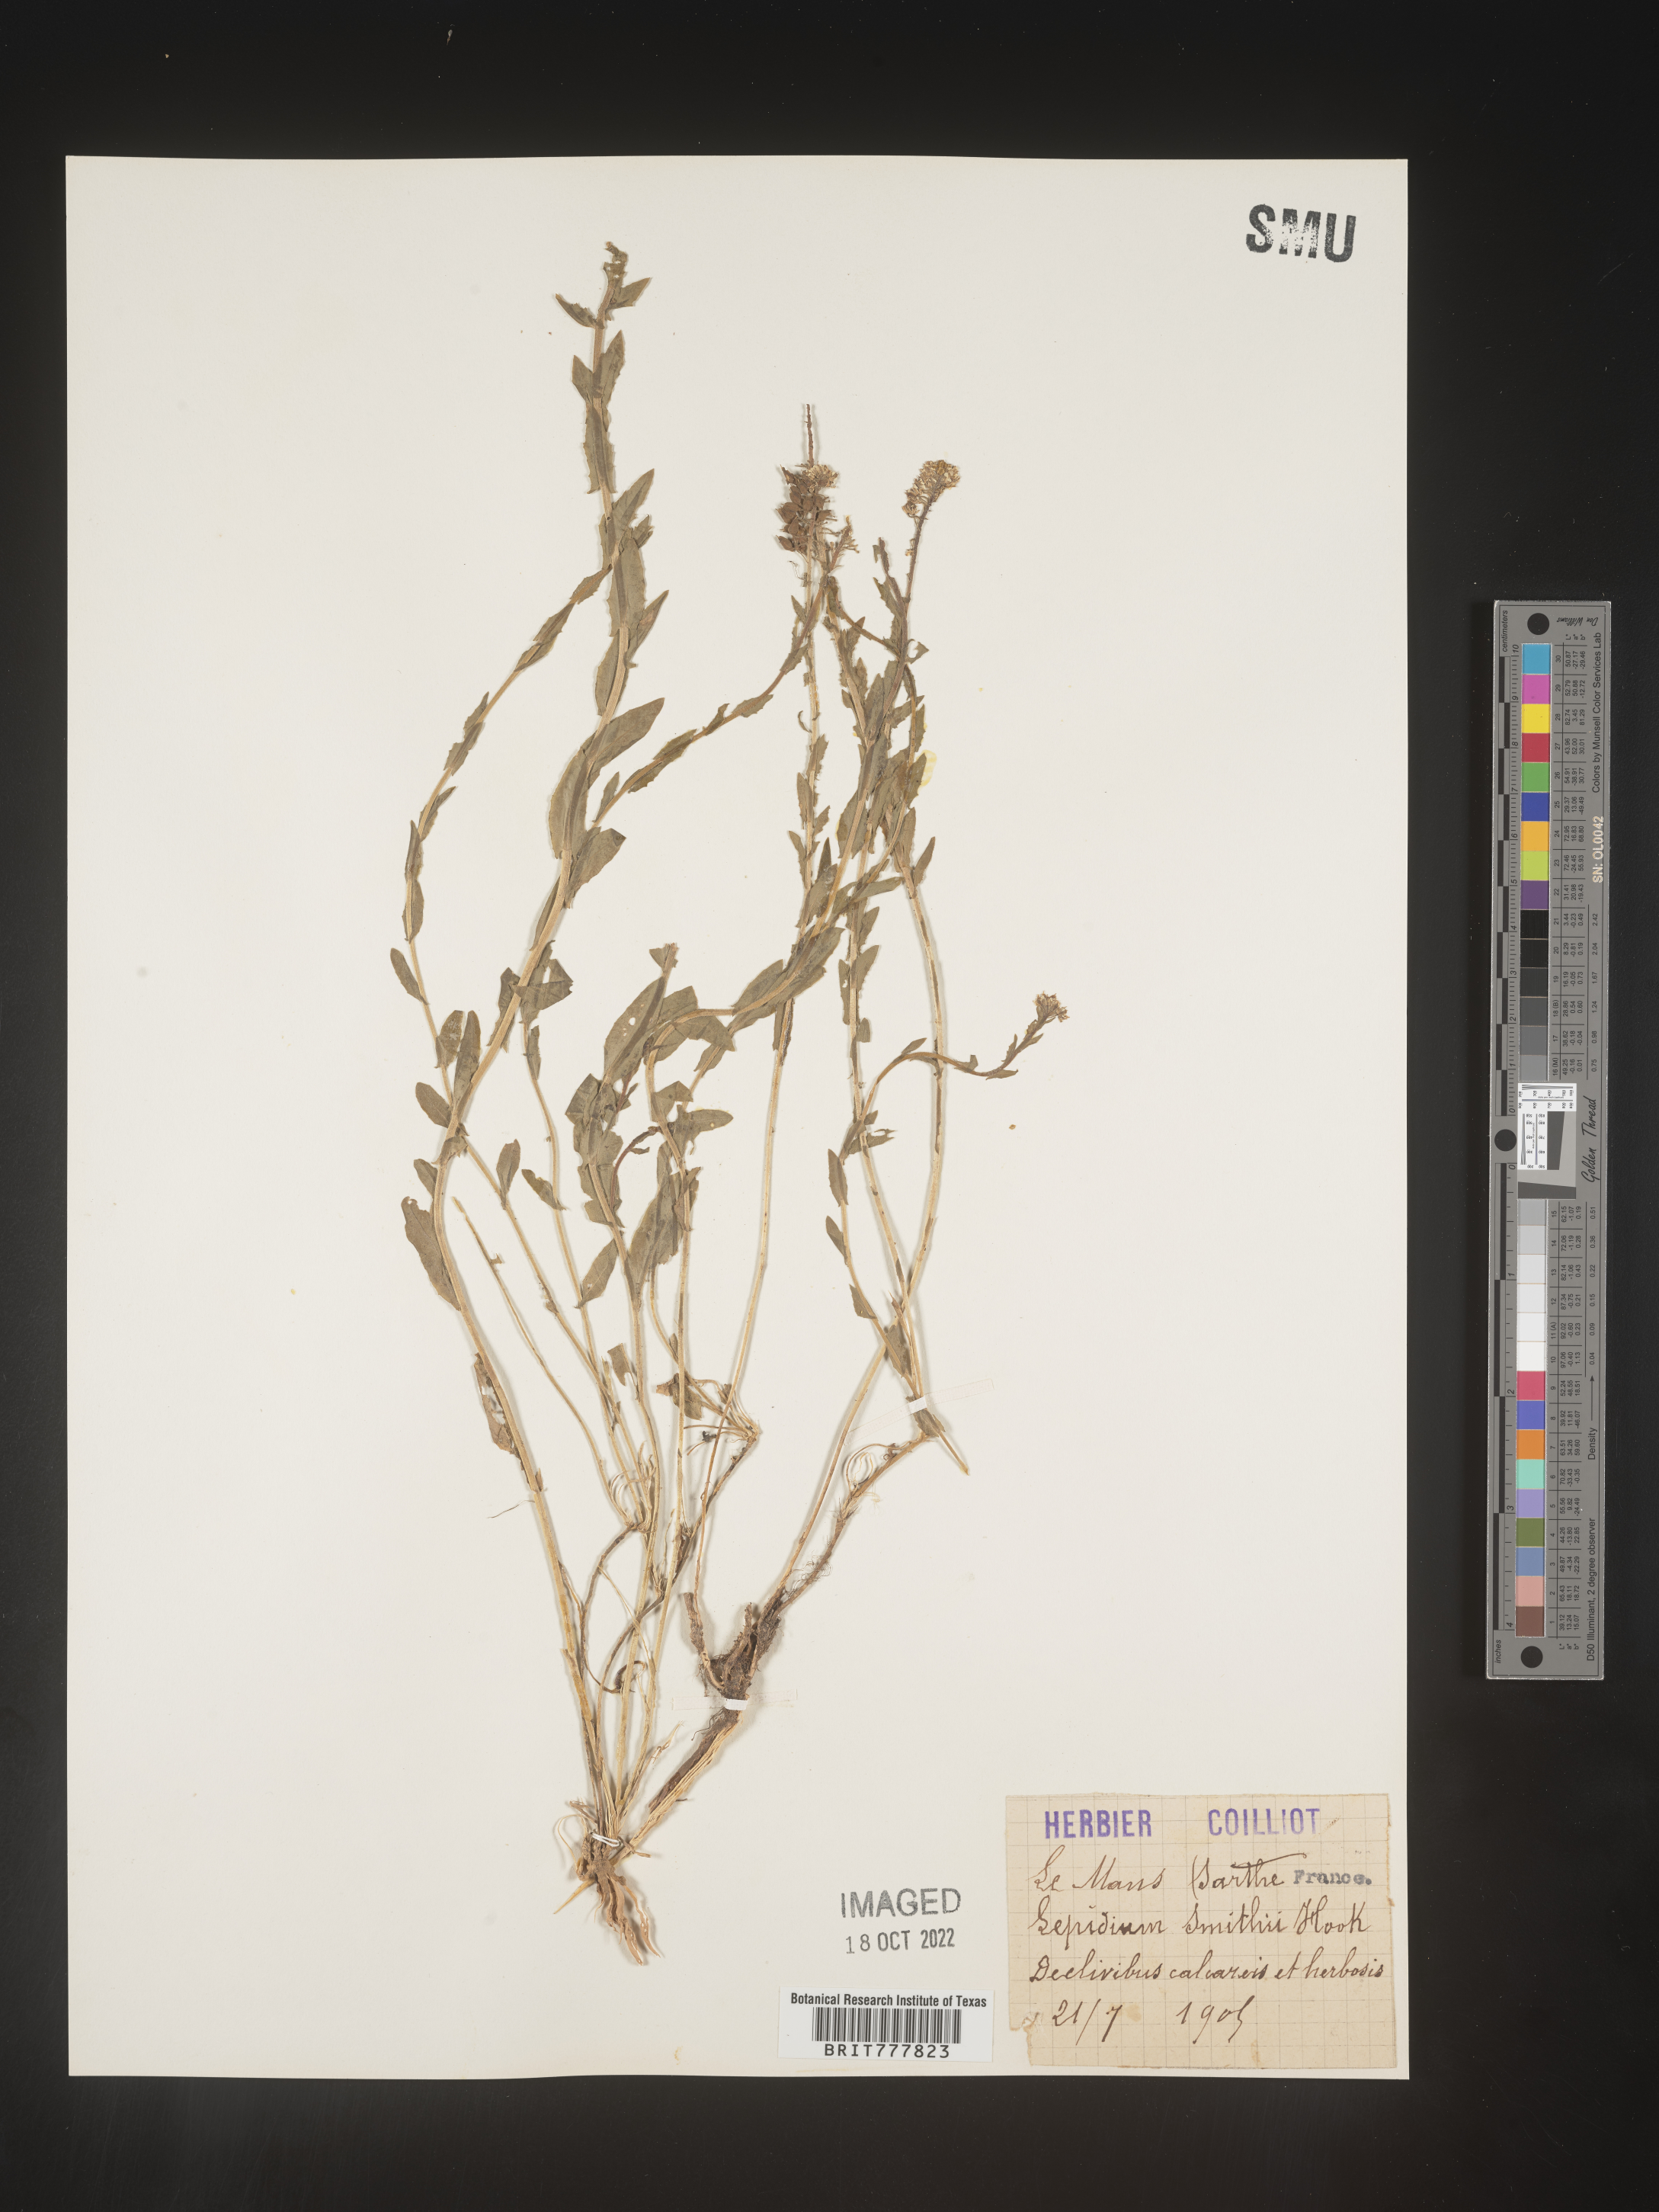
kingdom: Plantae
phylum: Tracheophyta
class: Magnoliopsida
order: Brassicales
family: Brassicaceae
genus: Lepidium
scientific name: Lepidium
